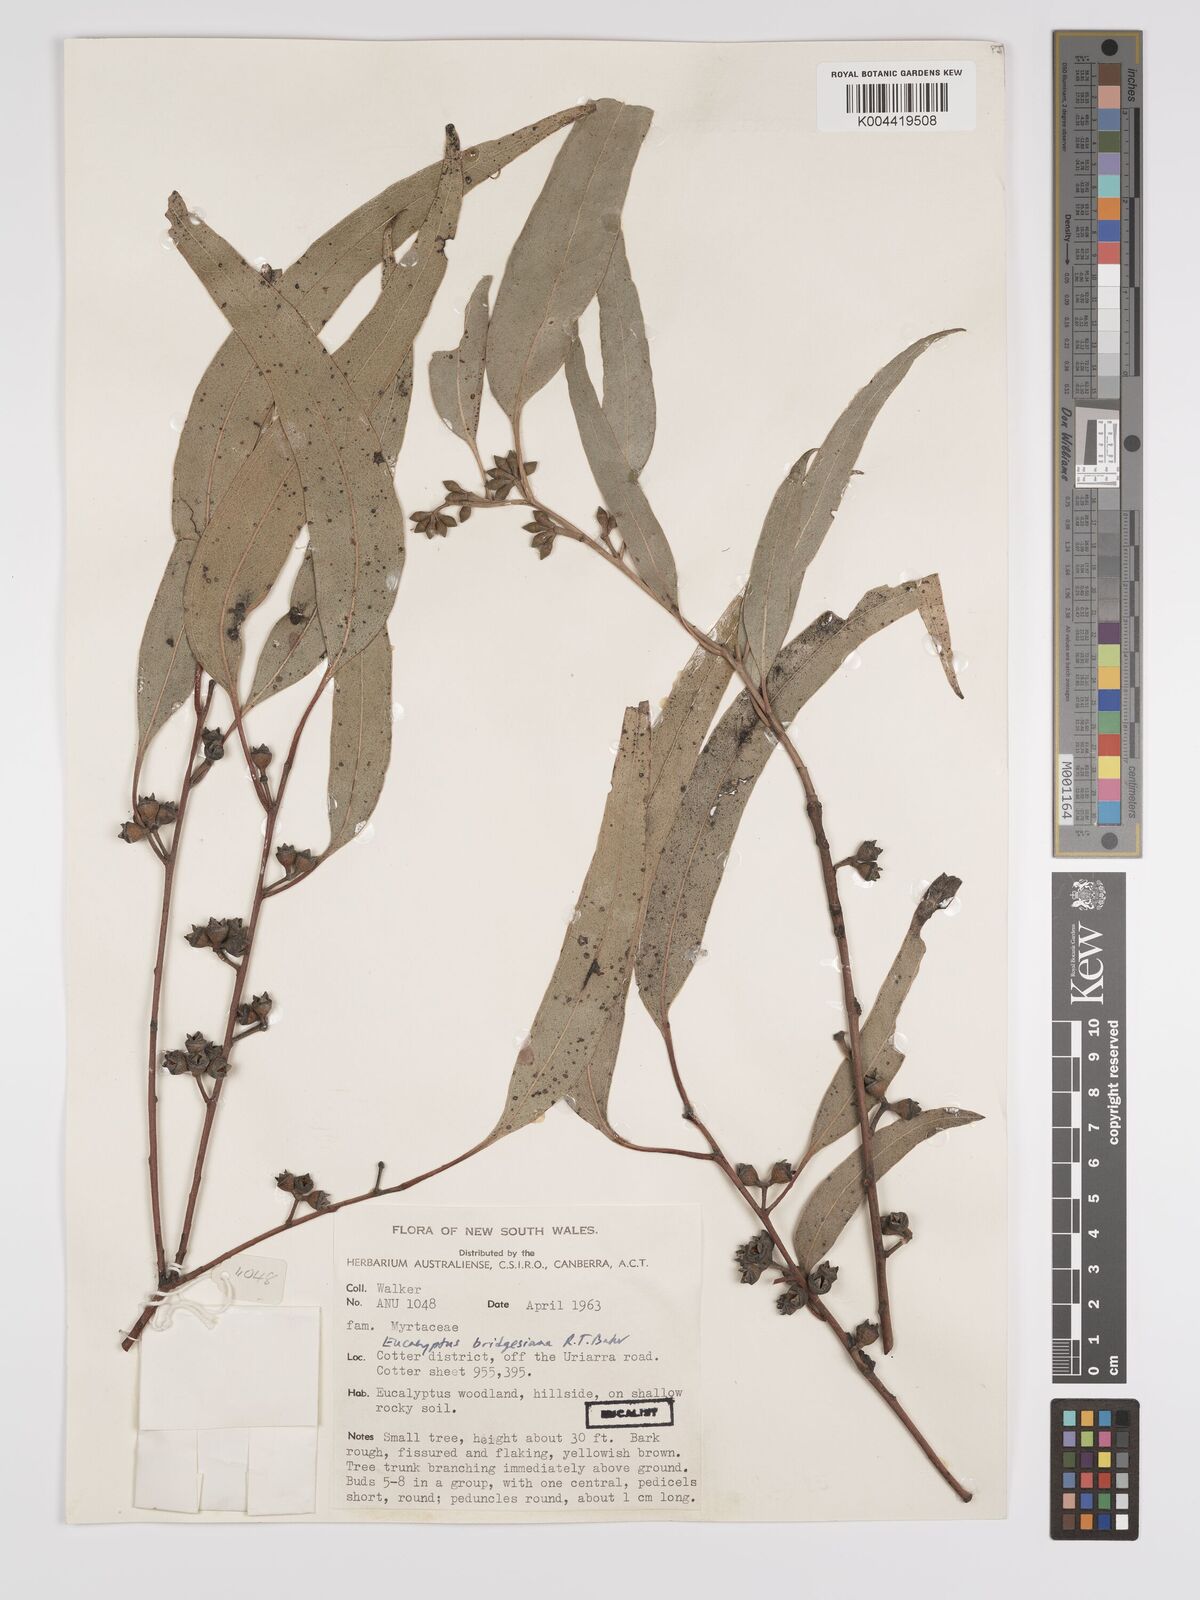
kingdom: Plantae
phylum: Tracheophyta
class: Magnoliopsida
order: Myrtales
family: Myrtaceae
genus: Eucalyptus
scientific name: Eucalyptus ovata
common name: Black-gum
